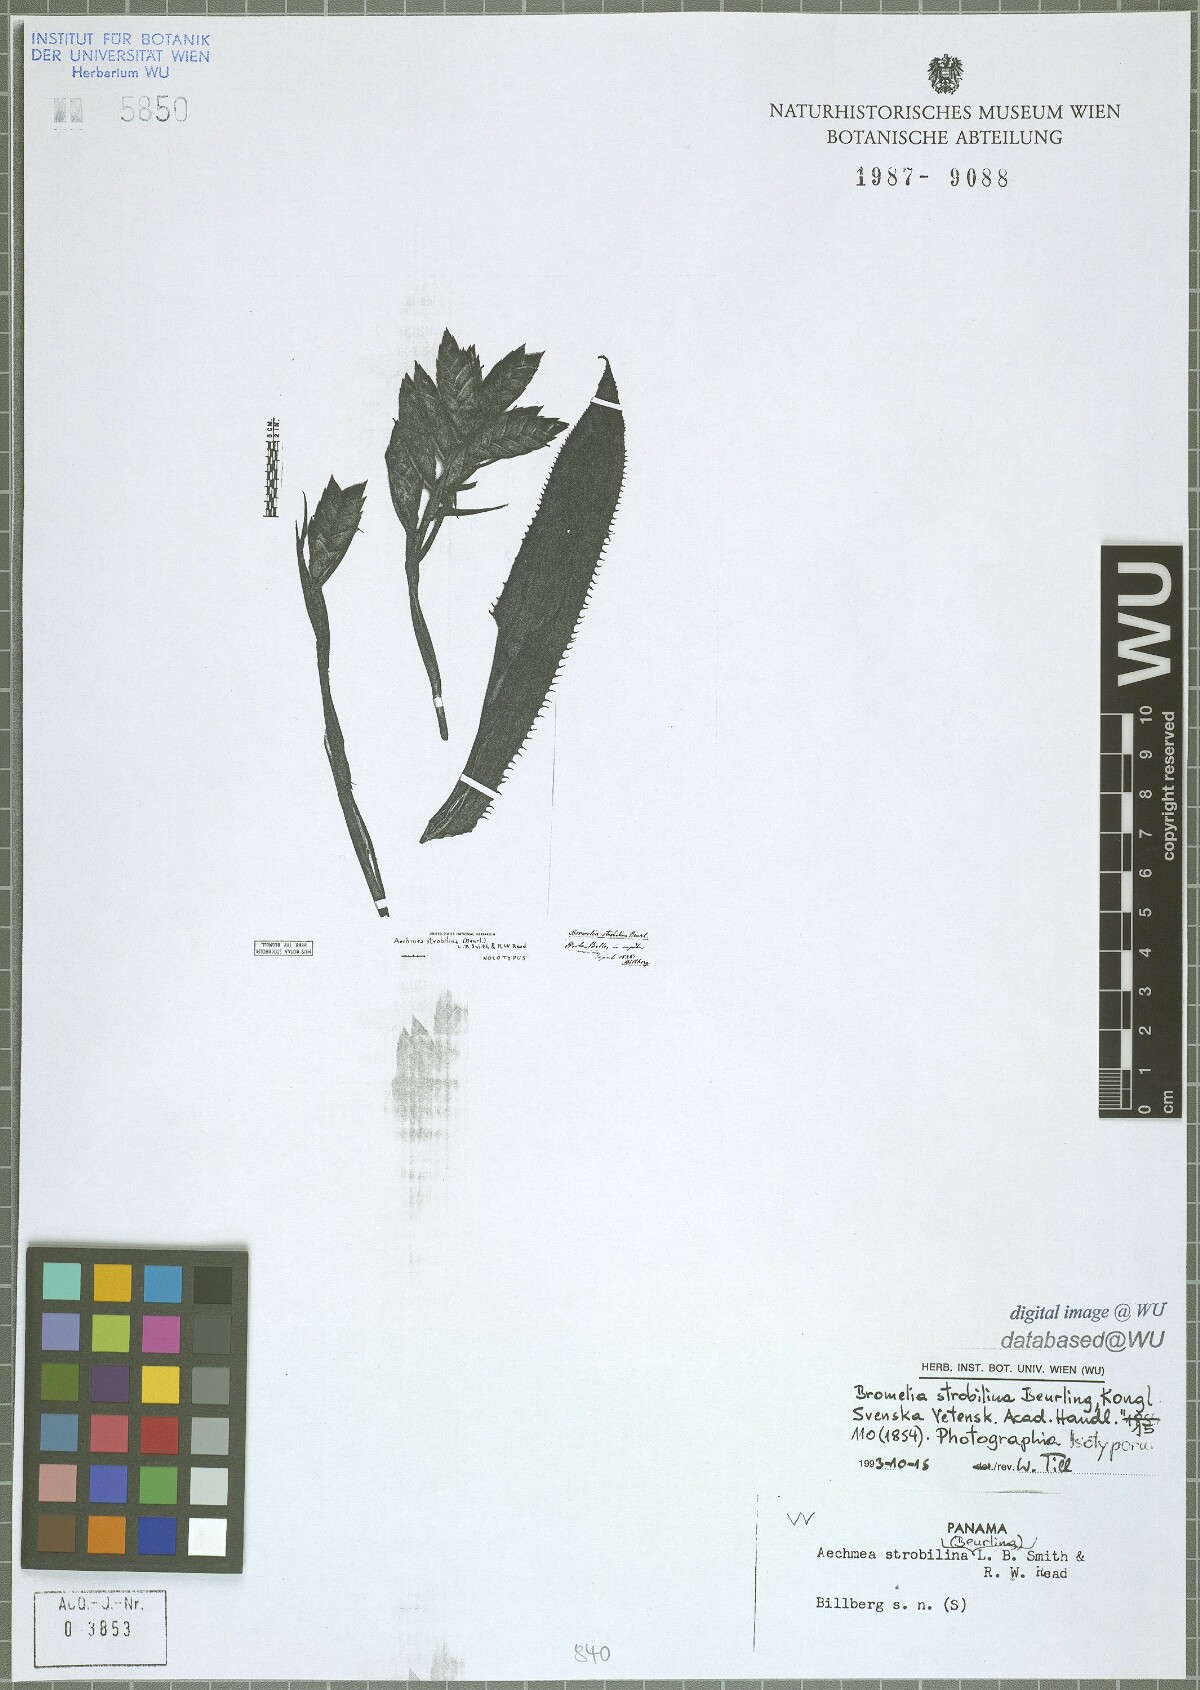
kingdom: Plantae
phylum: Tracheophyta
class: Liliopsida
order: Poales
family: Bromeliaceae
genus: Aechmea
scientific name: Aechmea strobilina
